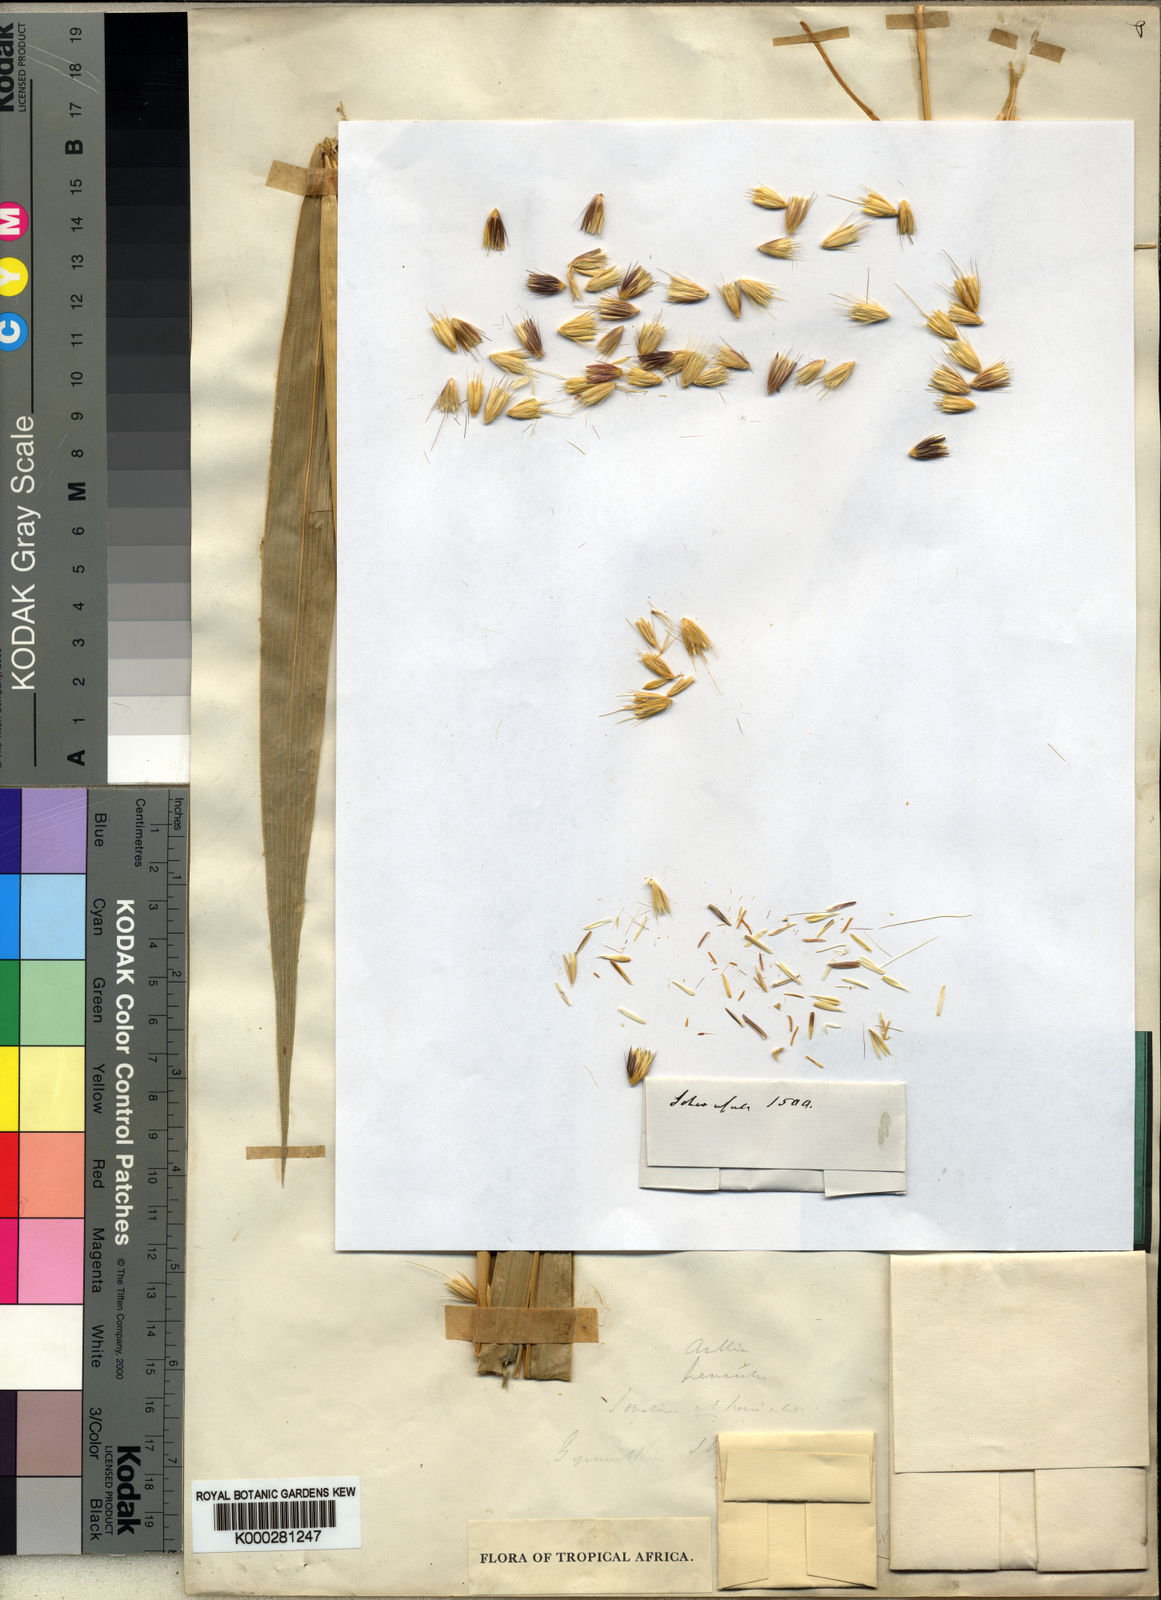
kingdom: Plantae
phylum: Tracheophyta
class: Liliopsida
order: Poales
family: Poaceae
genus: Cenchrus
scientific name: Cenchrus schweinfurthii
